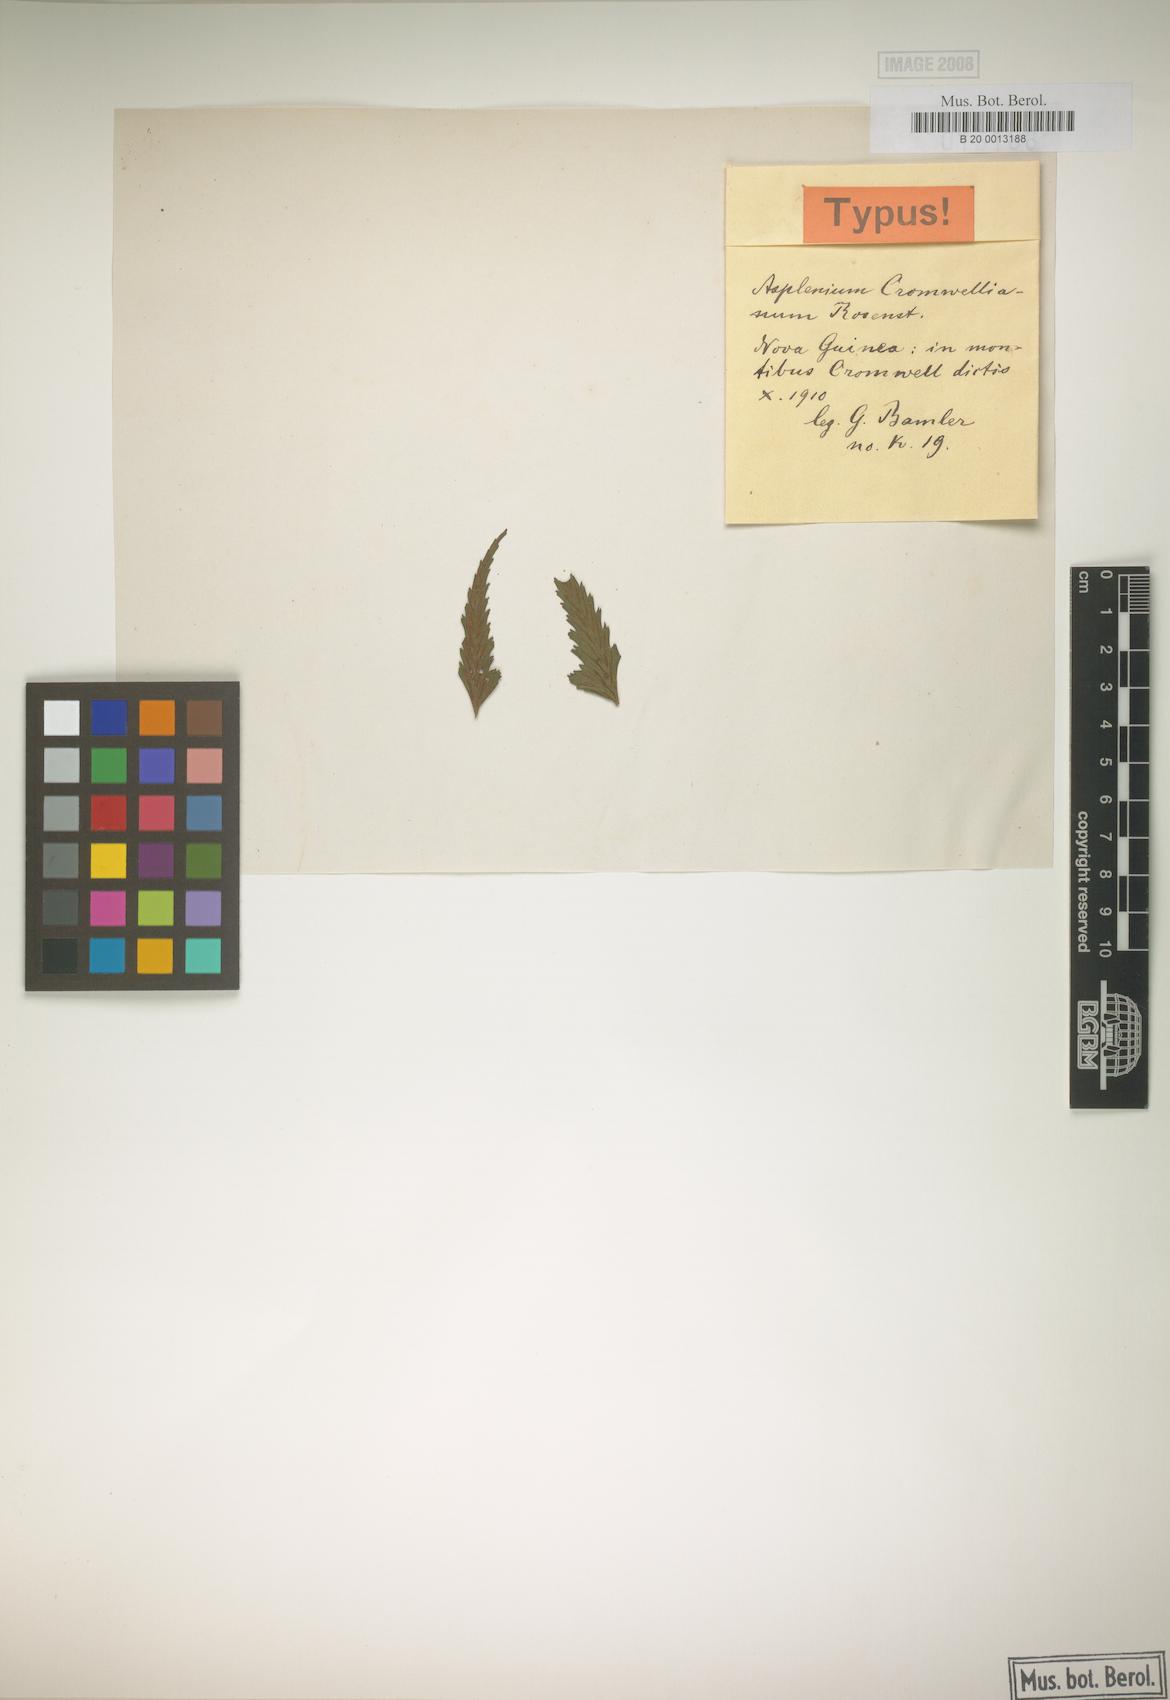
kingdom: Plantae
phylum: Tracheophyta
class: Polypodiopsida
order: Polypodiales
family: Aspleniaceae
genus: Asplenium
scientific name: Asplenium lobulatum
